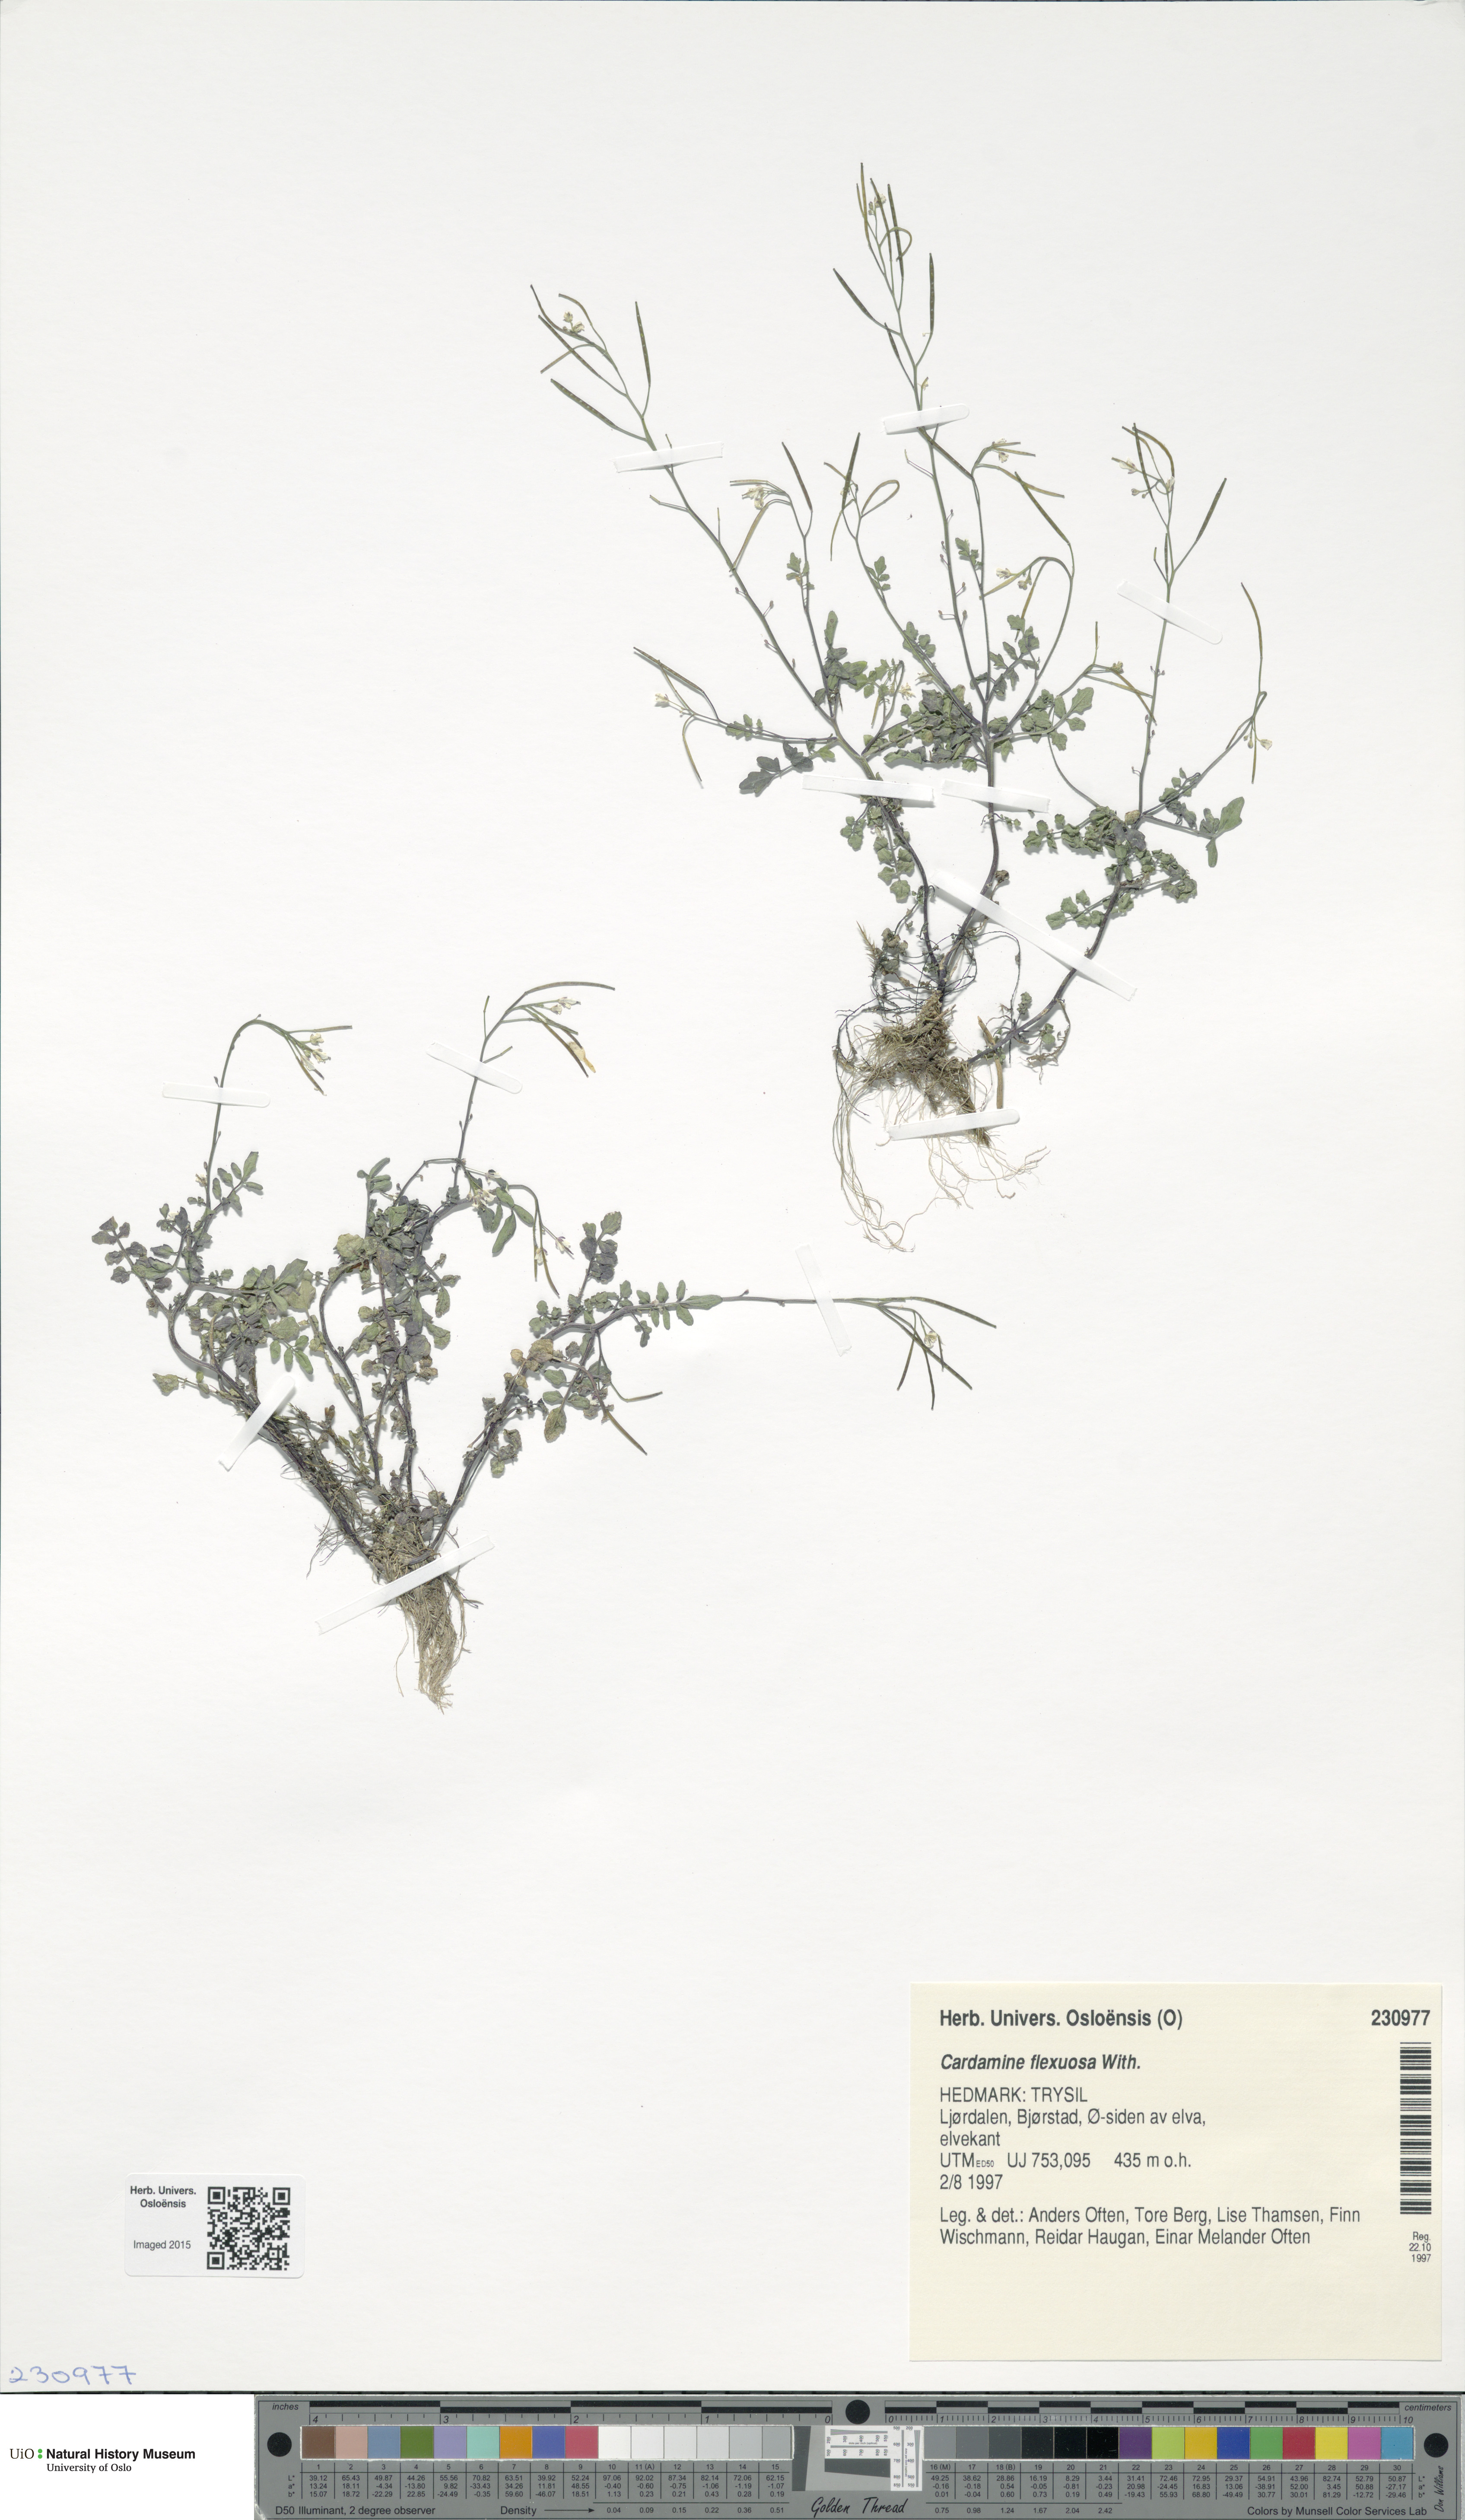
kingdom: Plantae
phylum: Tracheophyta
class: Magnoliopsida
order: Brassicales
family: Brassicaceae
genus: Cardamine
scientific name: Cardamine flexuosa
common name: Woodland bittercress
